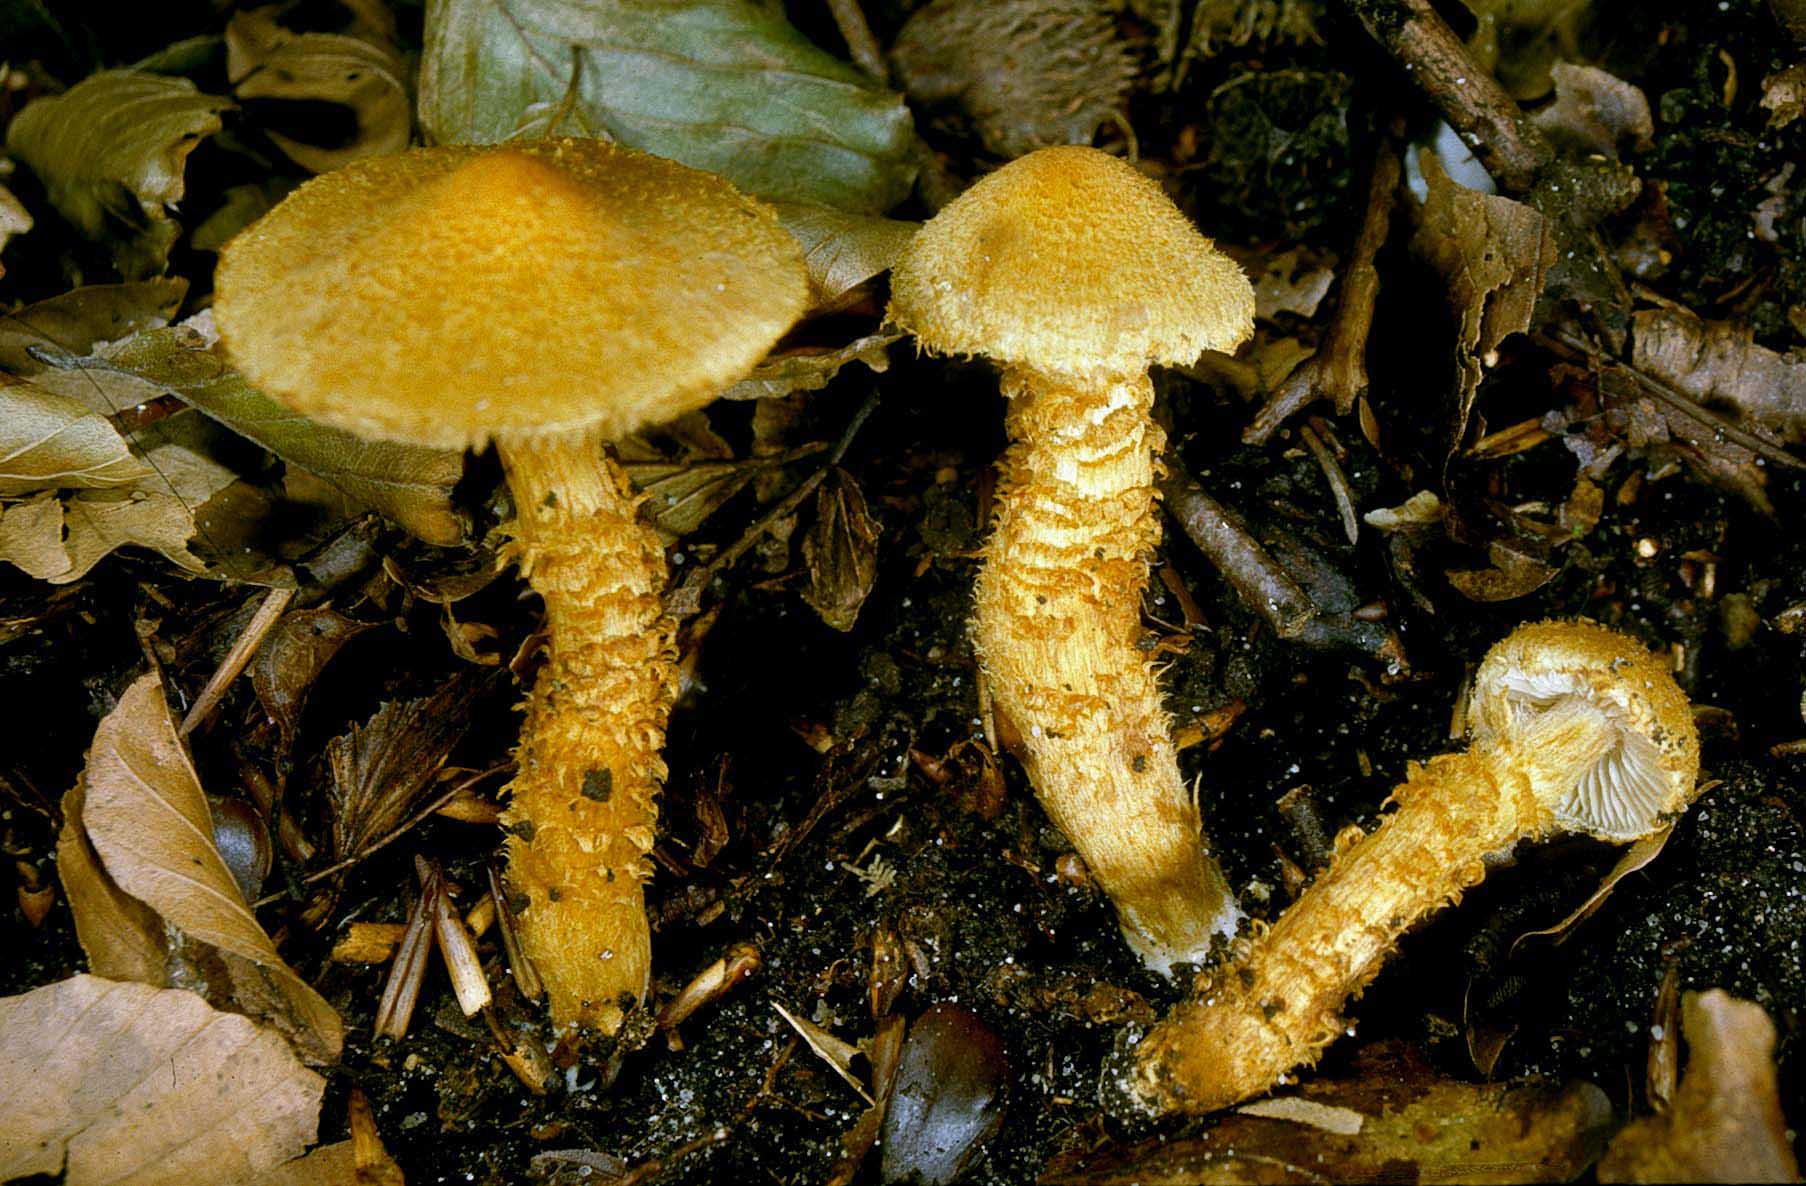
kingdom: Fungi
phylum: Basidiomycota
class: Agaricomycetes
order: Agaricales
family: Cortinariaceae
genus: Cortinarius
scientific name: Cortinarius humicola
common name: krumskællet slørhat
